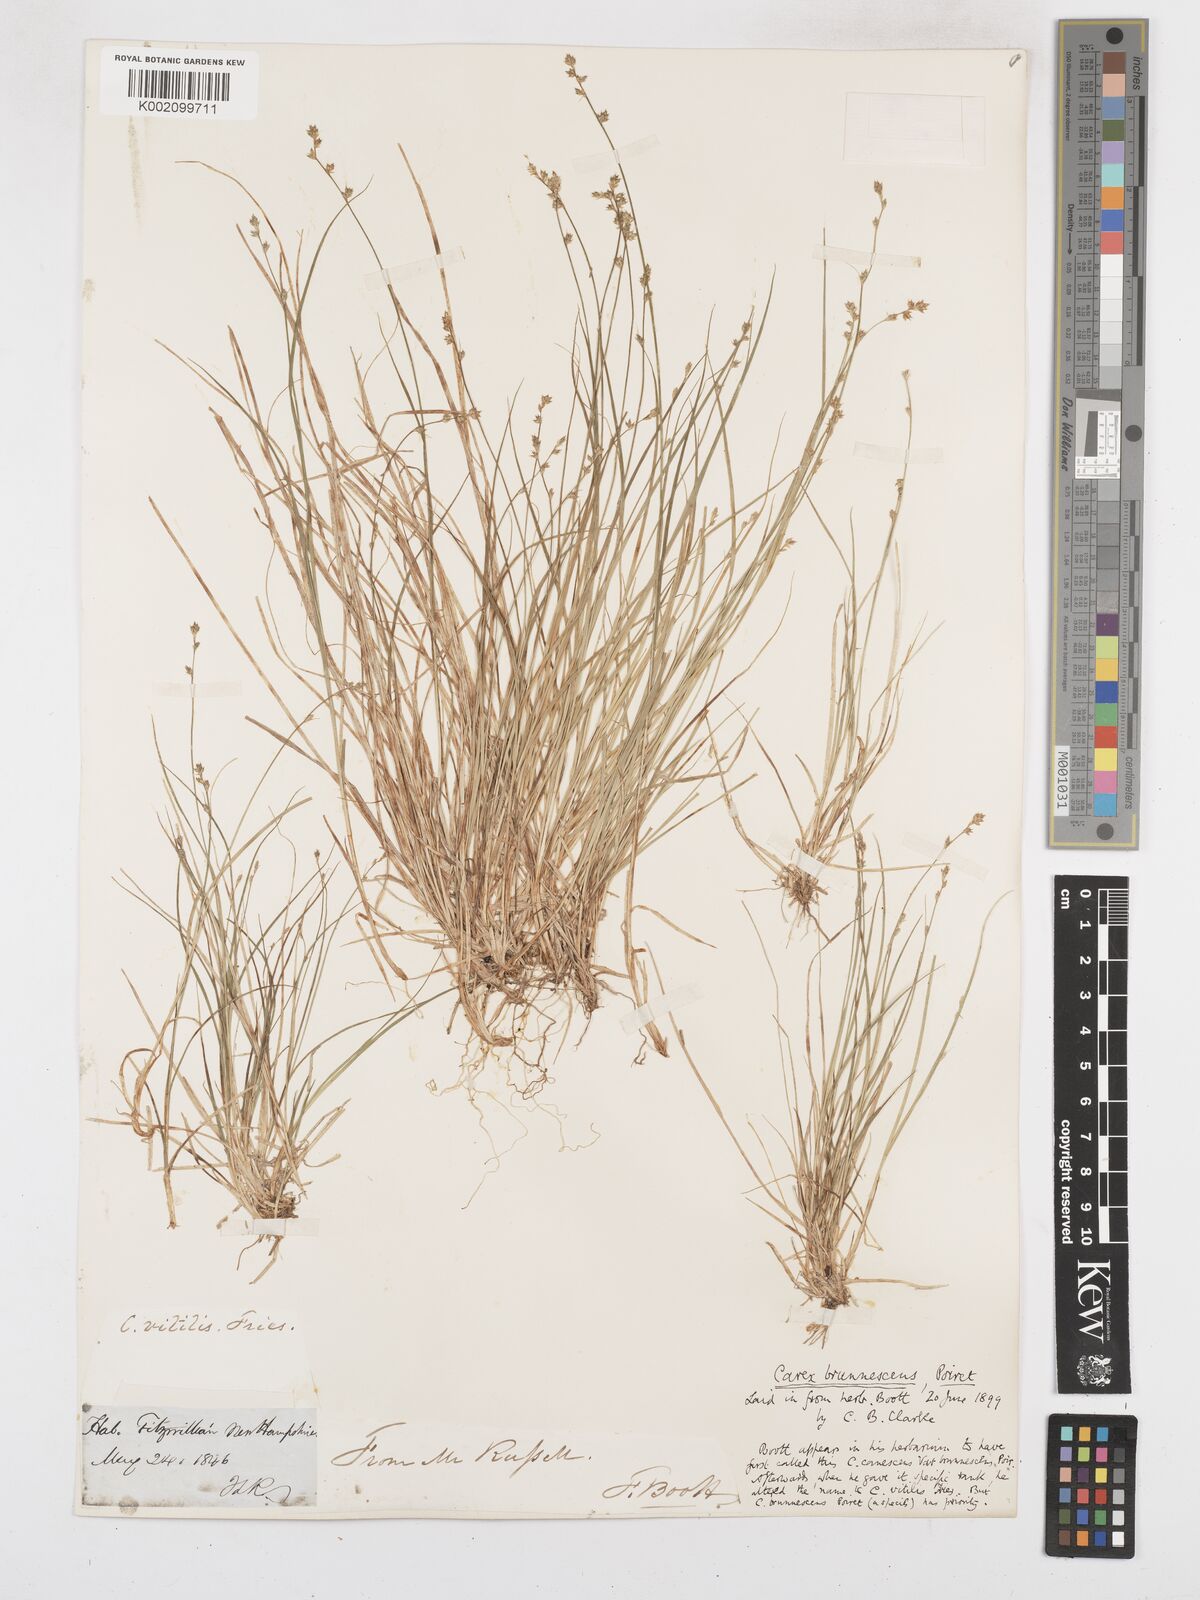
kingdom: Plantae
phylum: Tracheophyta
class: Liliopsida
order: Poales
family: Cyperaceae
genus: Carex
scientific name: Carex brunnescens
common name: Brown sedge
